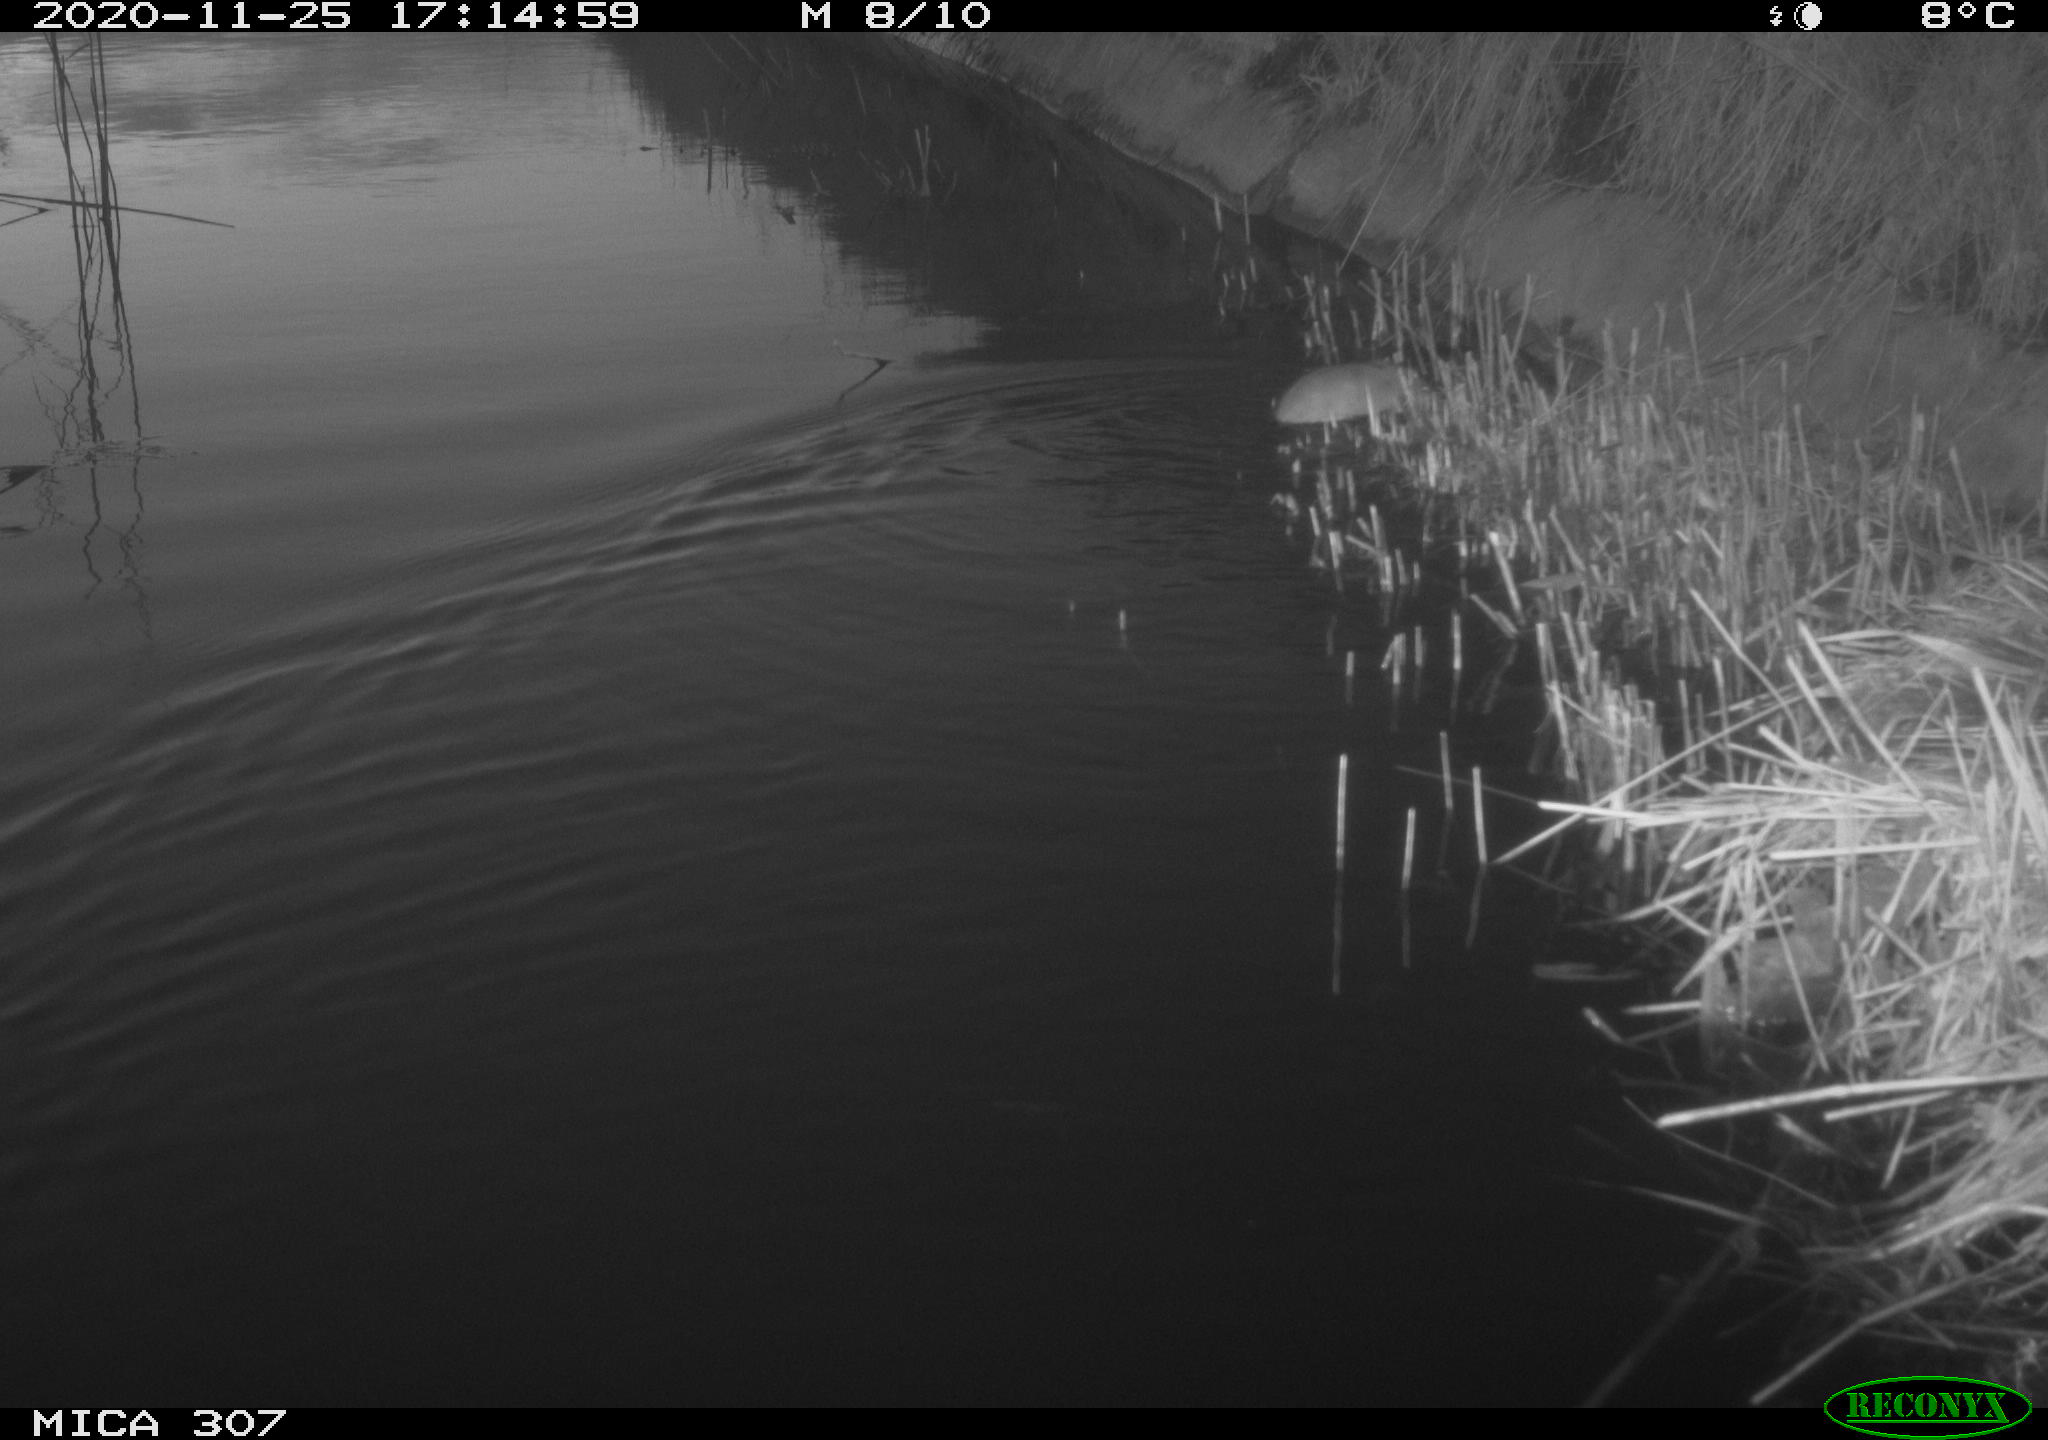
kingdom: Animalia
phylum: Chordata
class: Mammalia
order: Rodentia
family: Muridae
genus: Rattus
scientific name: Rattus norvegicus
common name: Brown rat
